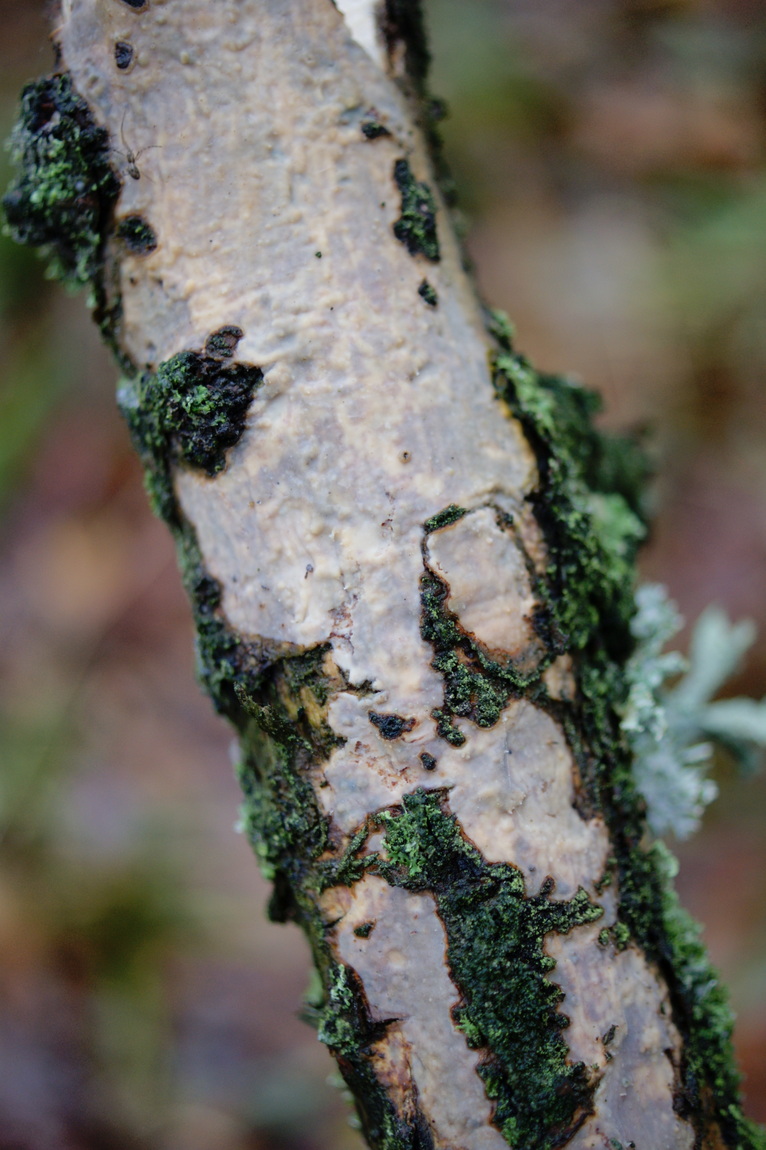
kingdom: Fungi
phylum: Basidiomycota
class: Agaricomycetes
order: Corticiales
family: Vuilleminiaceae
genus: Vuilleminia
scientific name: Vuilleminia comedens
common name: almindelig barksprænger
